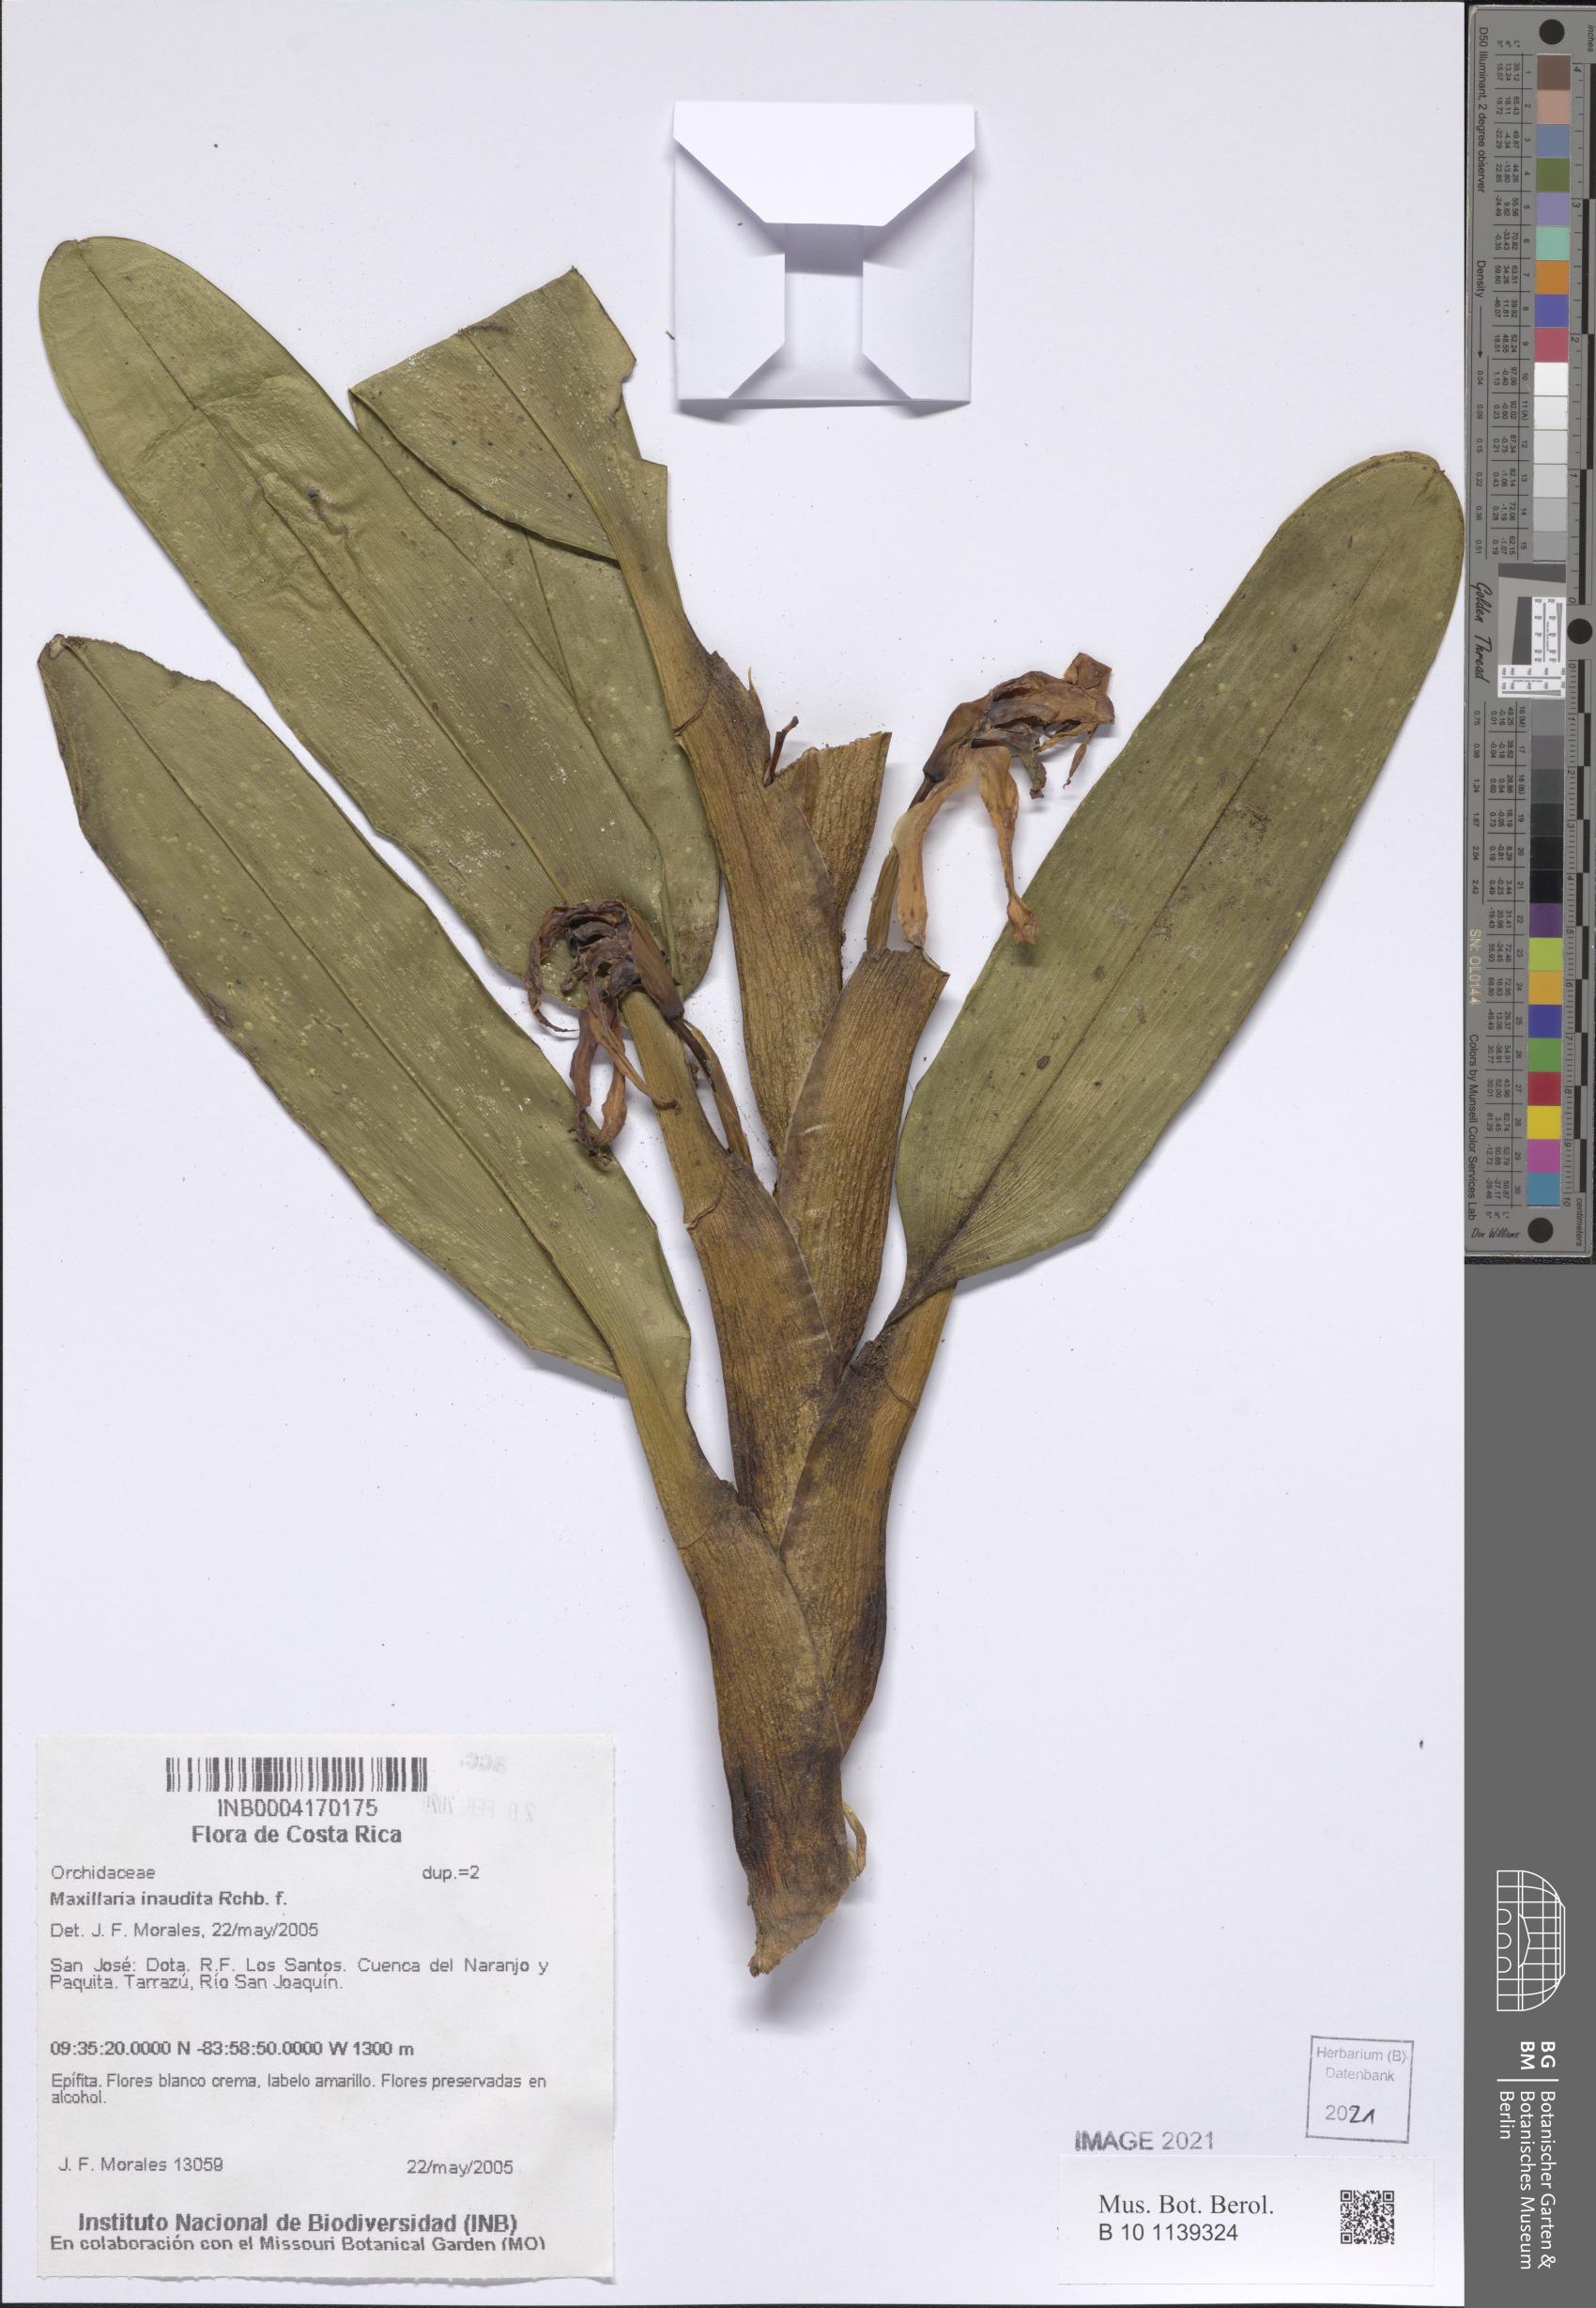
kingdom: Plantae
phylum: Tracheophyta
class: Liliopsida
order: Asparagales
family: Orchidaceae
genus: Maxillaria
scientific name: Maxillaria inaudita
